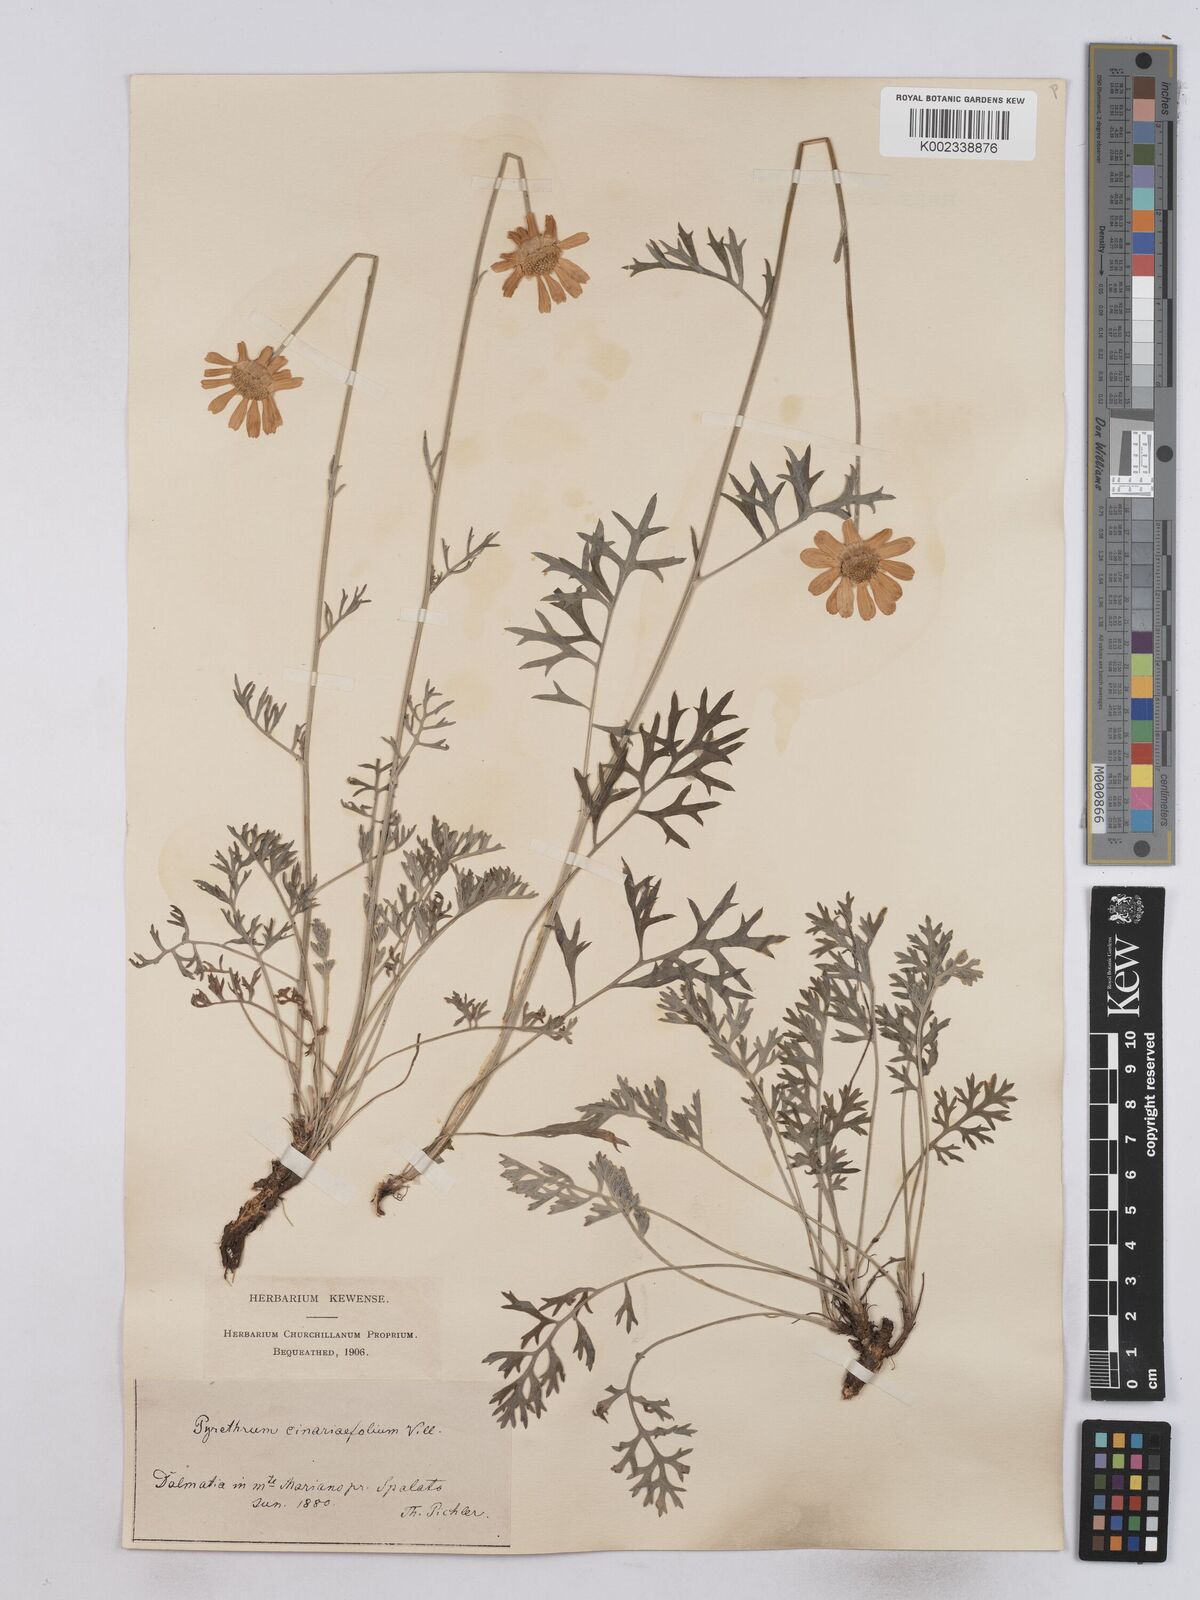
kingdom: Plantae
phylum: Tracheophyta
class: Magnoliopsida
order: Asterales
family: Asteraceae
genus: Tanacetum
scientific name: Tanacetum cinerariifolium
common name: Dalmatian pyrethrum
